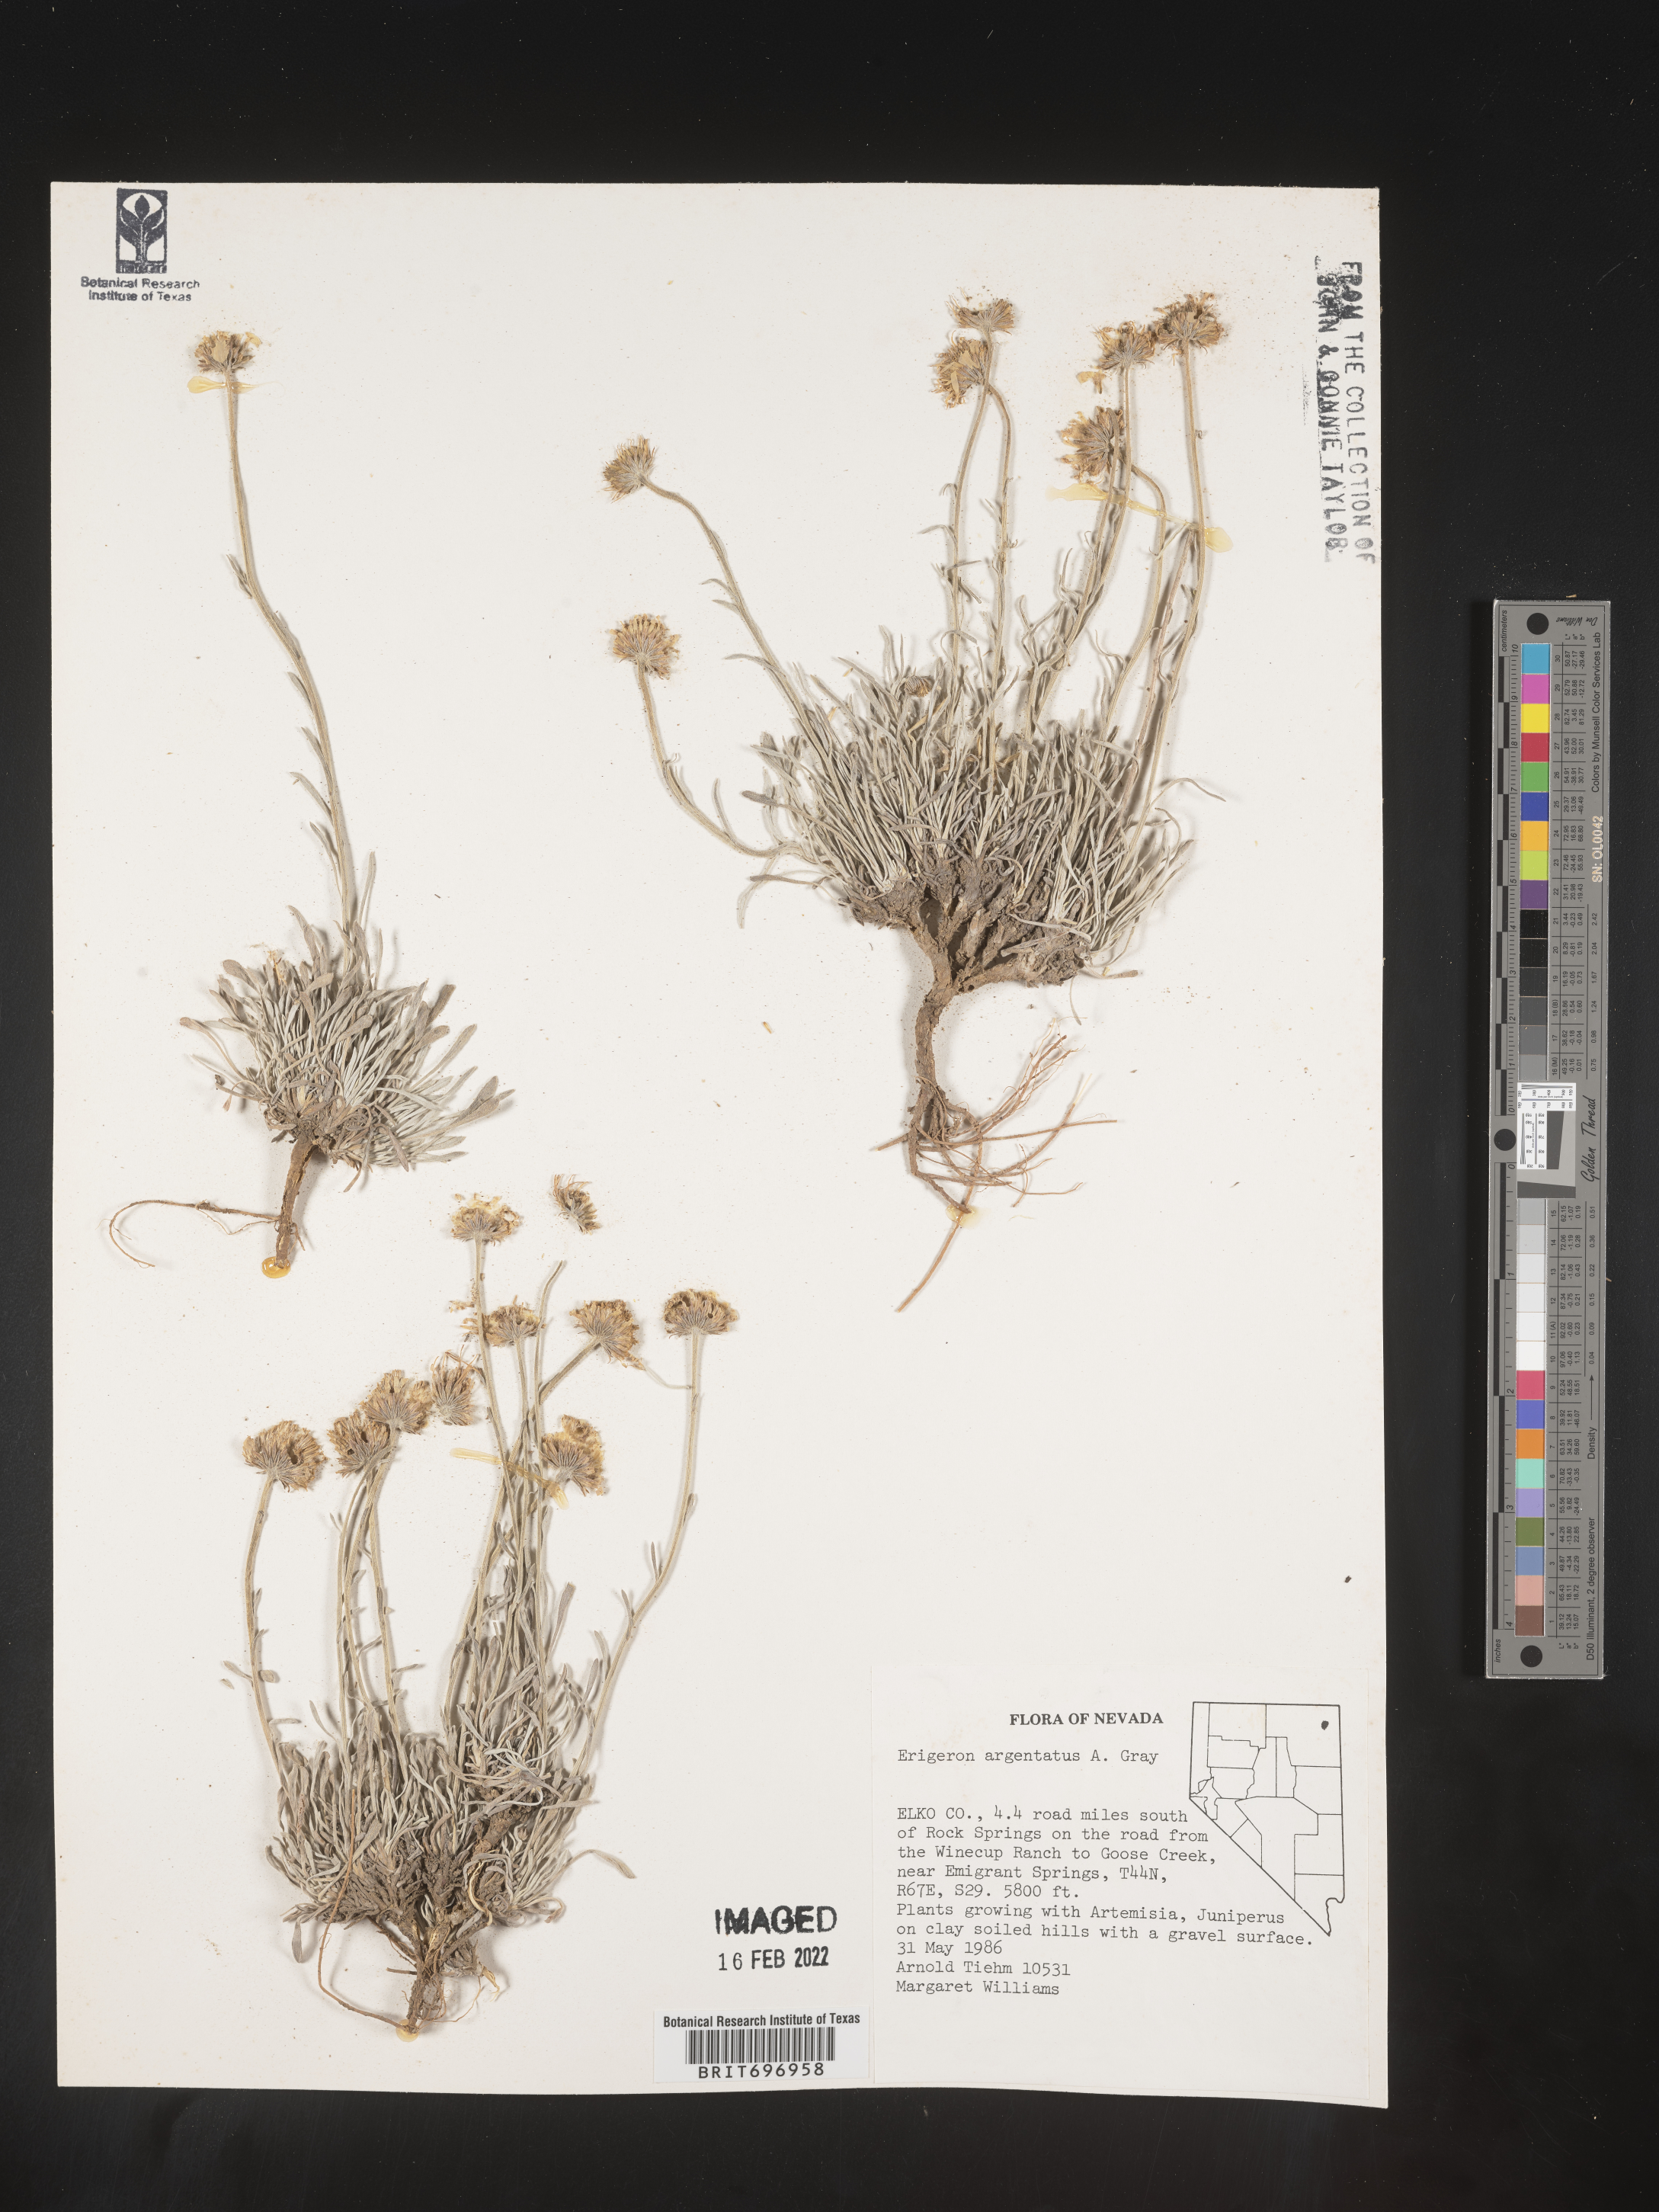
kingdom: Plantae
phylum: Tracheophyta
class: Magnoliopsida
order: Asterales
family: Asteraceae
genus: Erigeron
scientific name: Erigeron argentatus
